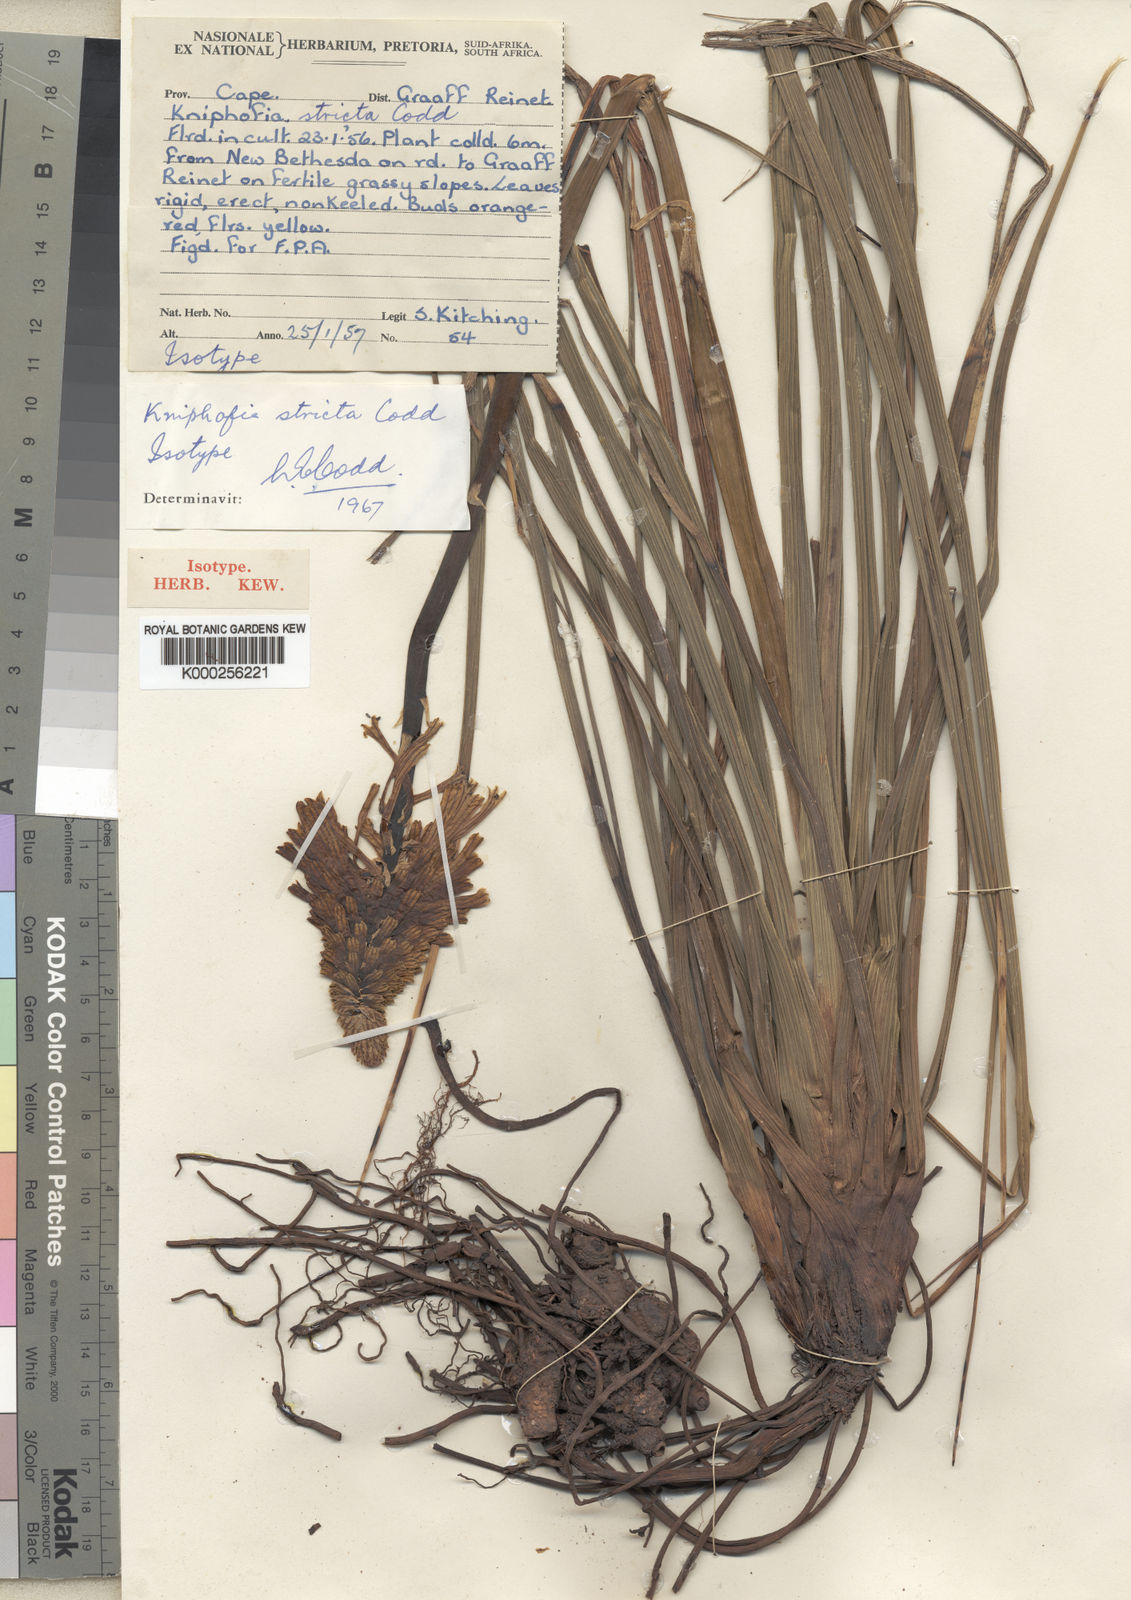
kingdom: Plantae
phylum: Tracheophyta
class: Liliopsida
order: Asparagales
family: Asphodelaceae
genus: Kniphofia
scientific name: Kniphofia stricta
